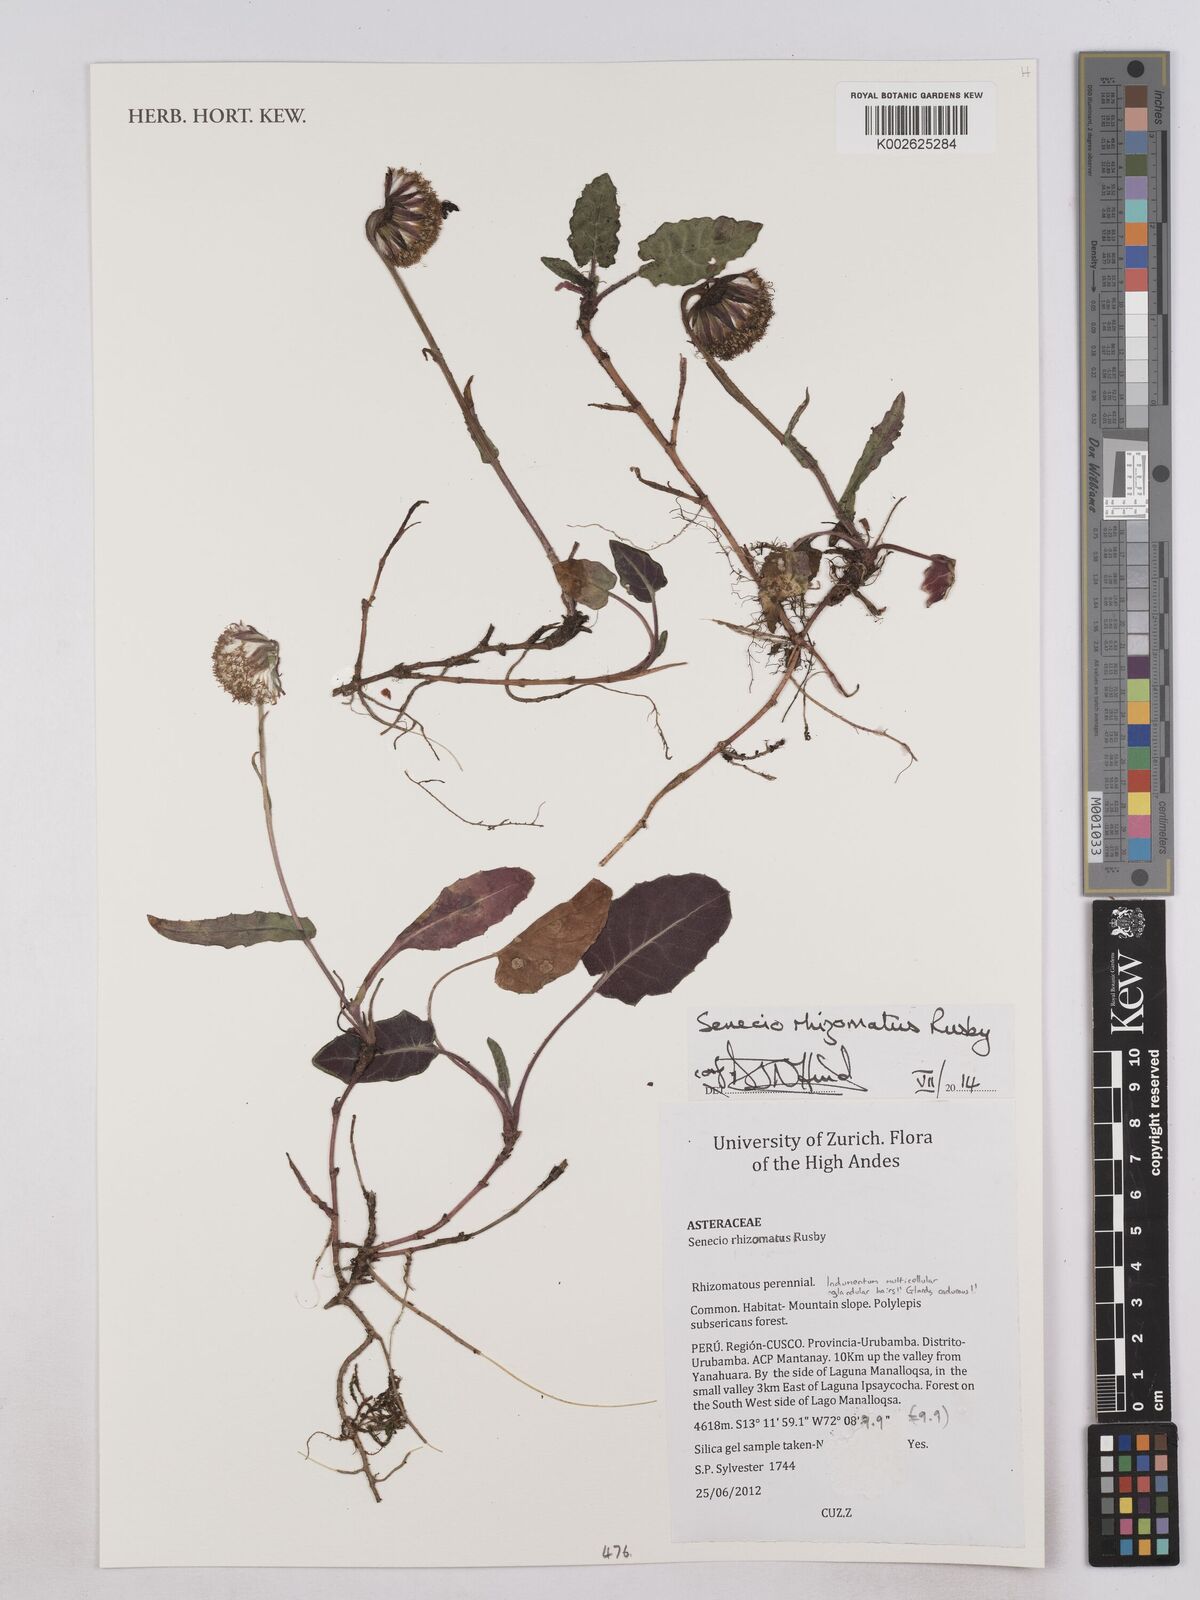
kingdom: Plantae
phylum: Tracheophyta
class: Magnoliopsida
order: Asterales
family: Asteraceae
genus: Senecio
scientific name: Senecio rhizomatus
